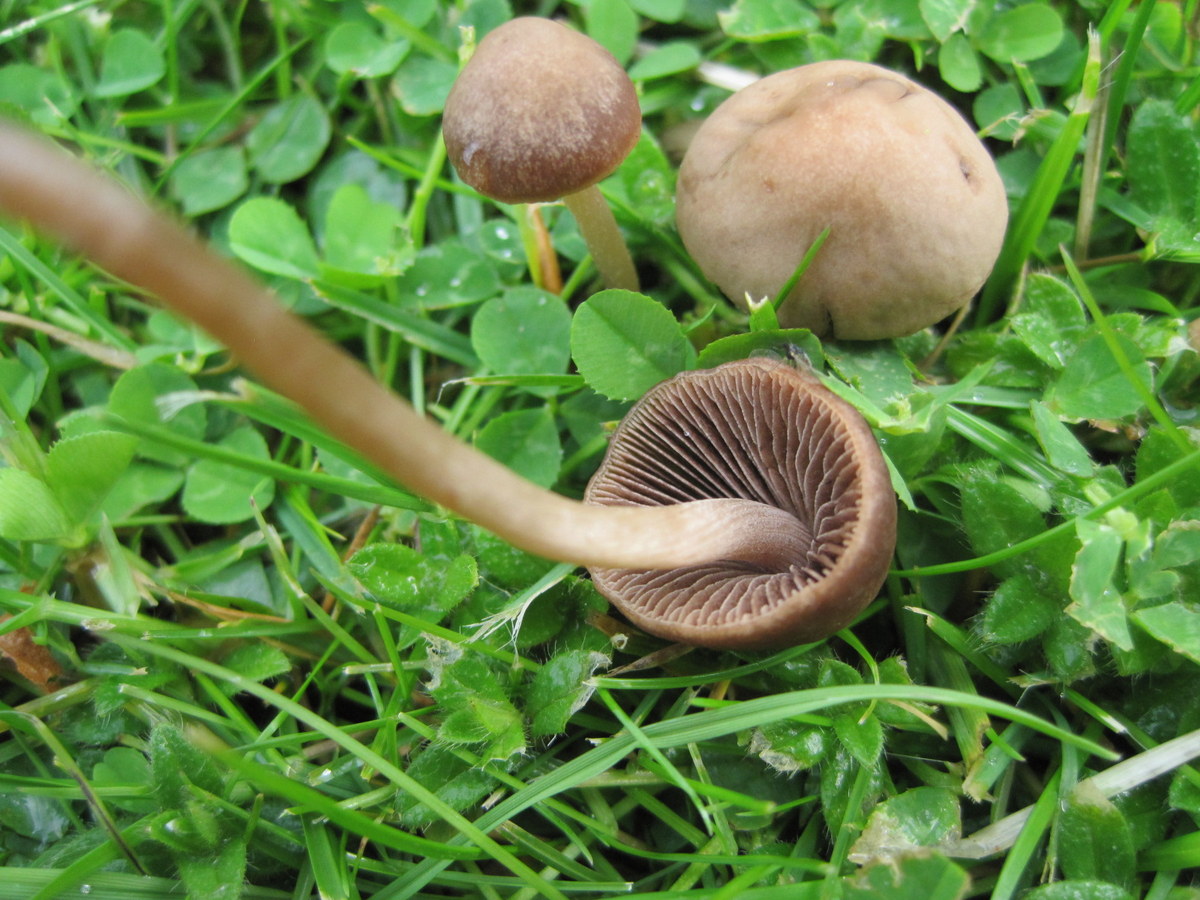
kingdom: Fungi
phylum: Basidiomycota
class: Agaricomycetes
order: Agaricales
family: Bolbitiaceae
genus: Panaeolina
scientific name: Panaeolina foenisecii
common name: høslætsvamp
